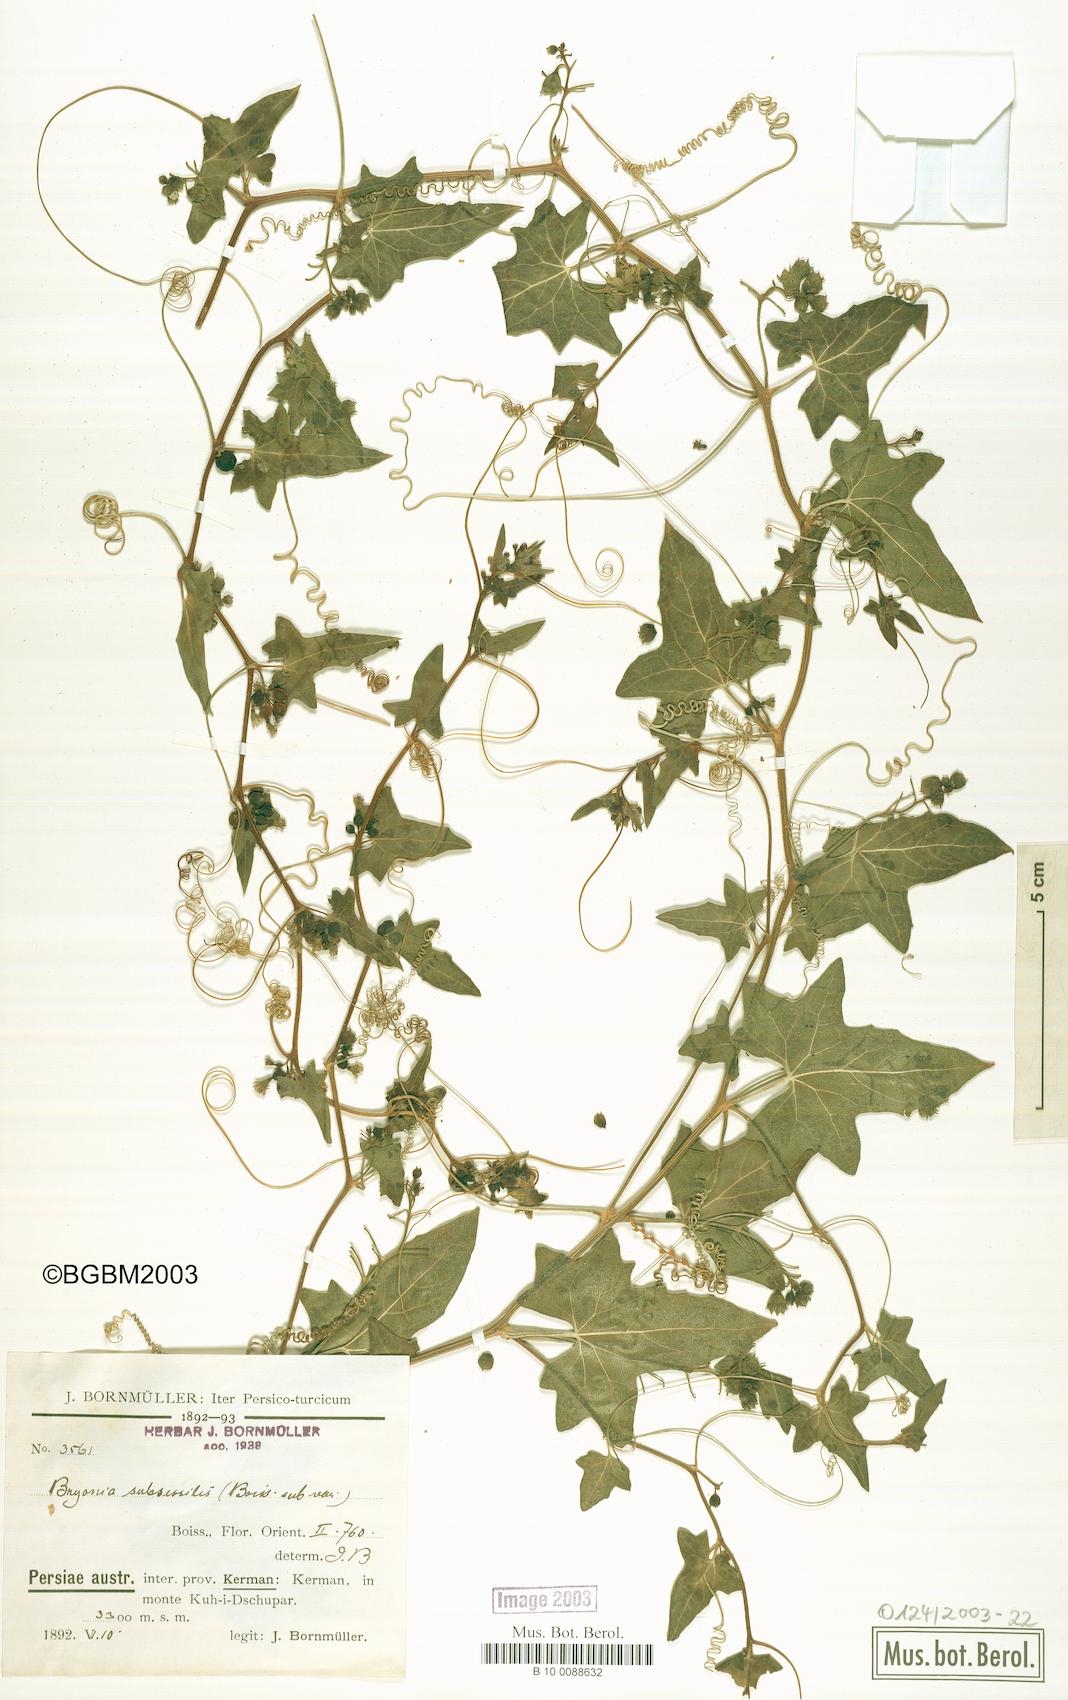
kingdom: Plantae
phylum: Tracheophyta
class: Magnoliopsida
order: Cucurbitales
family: Cucurbitaceae
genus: Bryonia
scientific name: Bryonia multiflora
